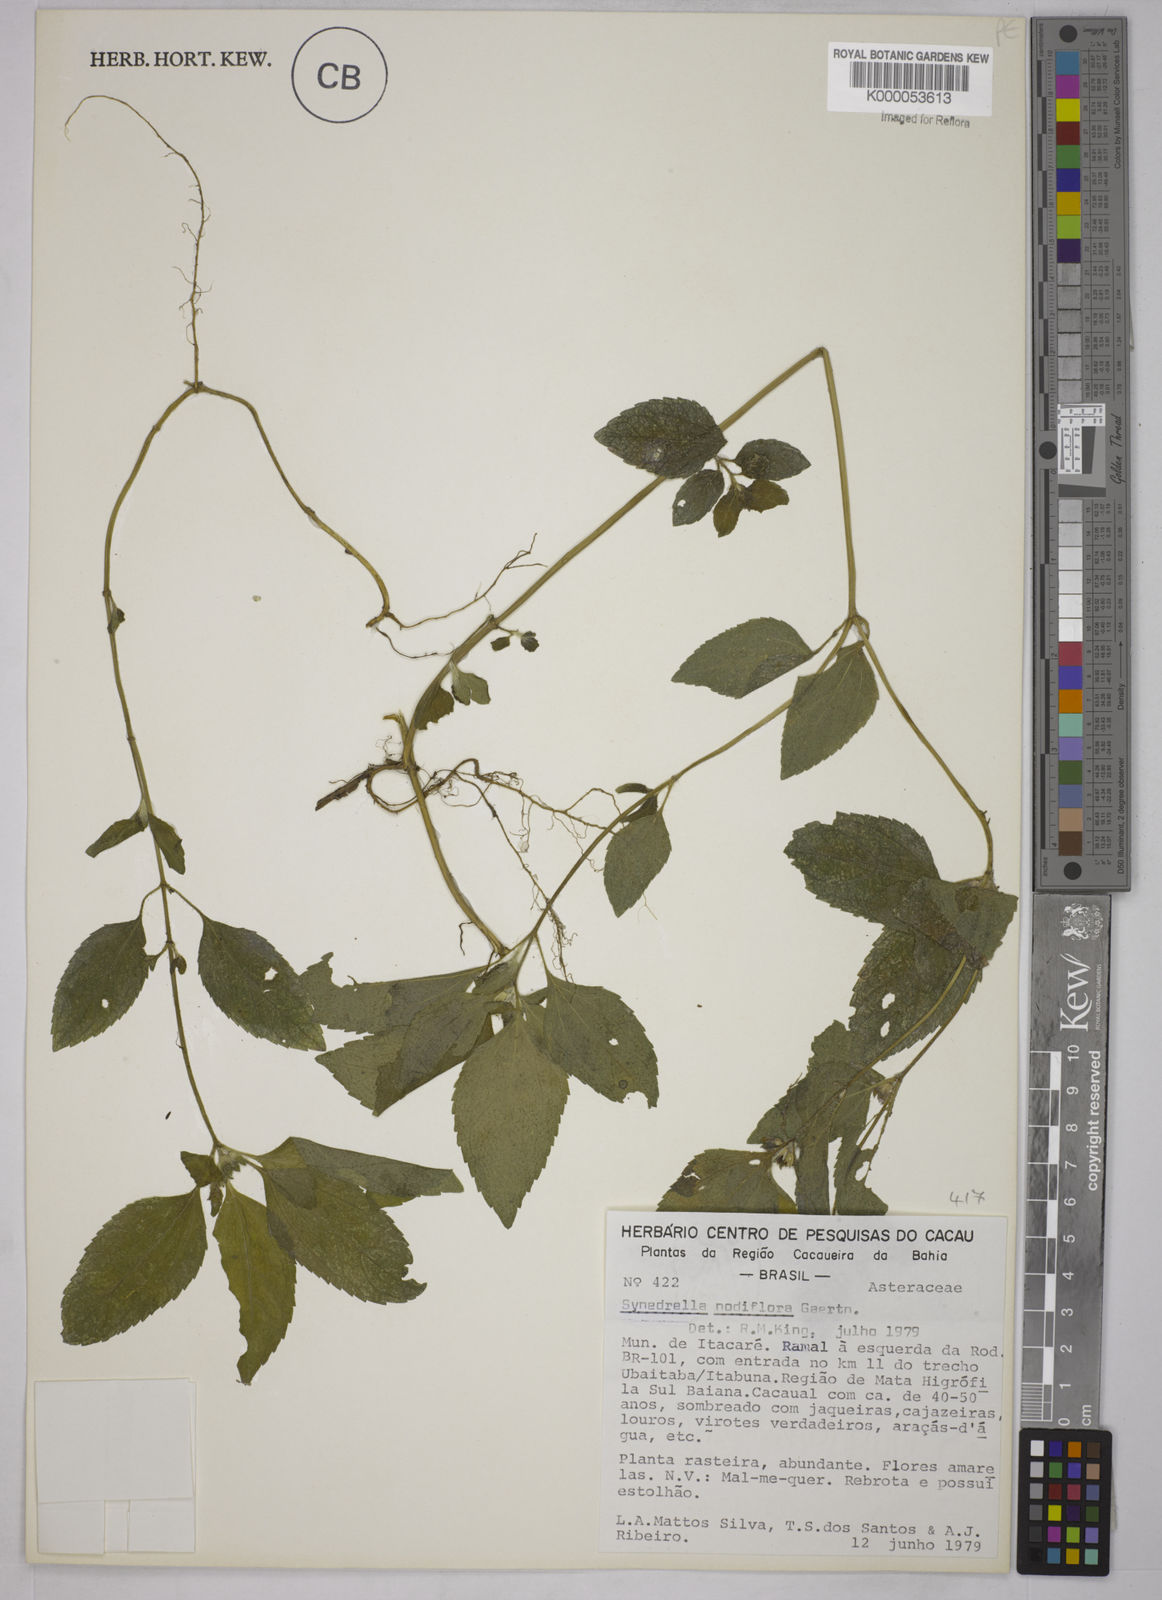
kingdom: Plantae
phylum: Tracheophyta
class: Magnoliopsida
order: Asterales
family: Asteraceae
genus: Synedrella
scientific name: Synedrella nodiflora
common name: Nodeweed
